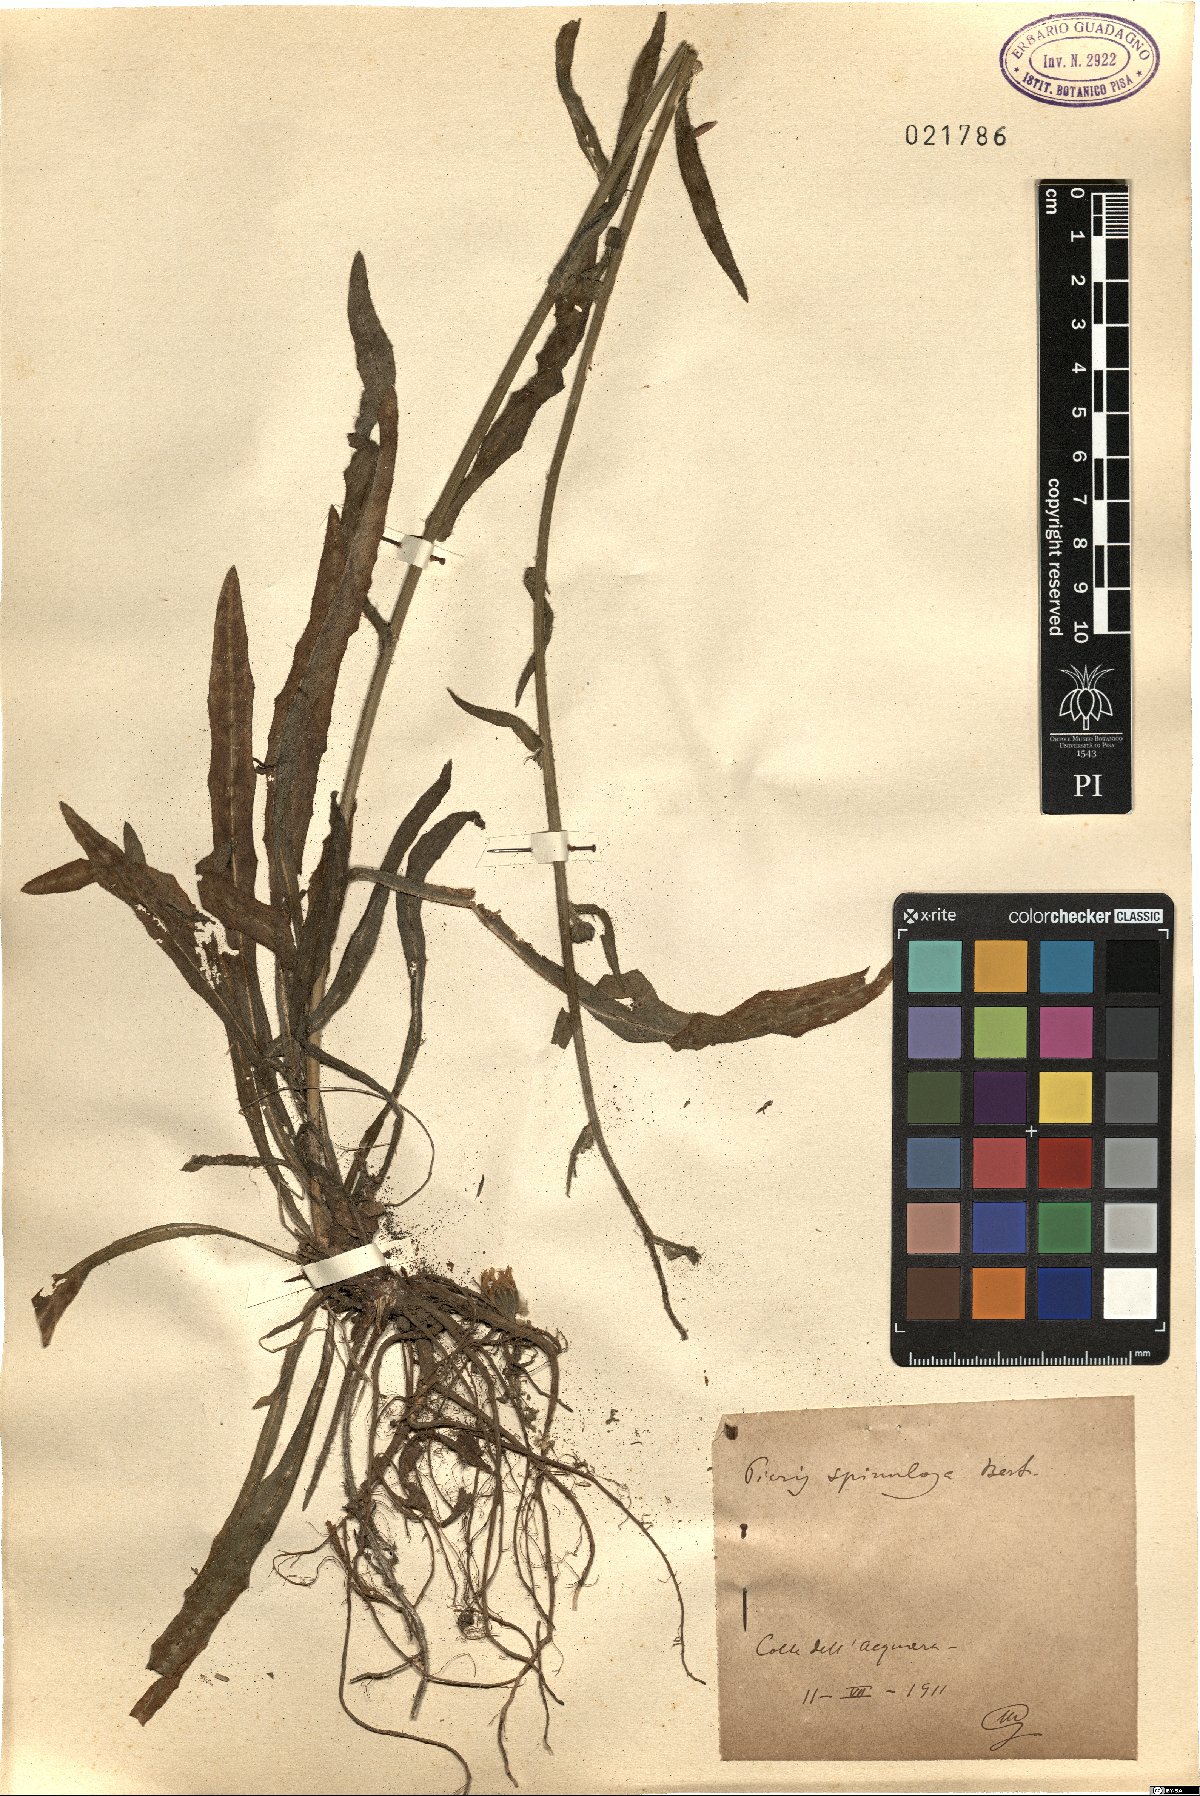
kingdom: Plantae
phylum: Tracheophyta
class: Magnoliopsida
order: Asterales
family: Asteraceae
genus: Picris
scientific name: Picris hieracioides
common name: Hawkweed oxtongue
